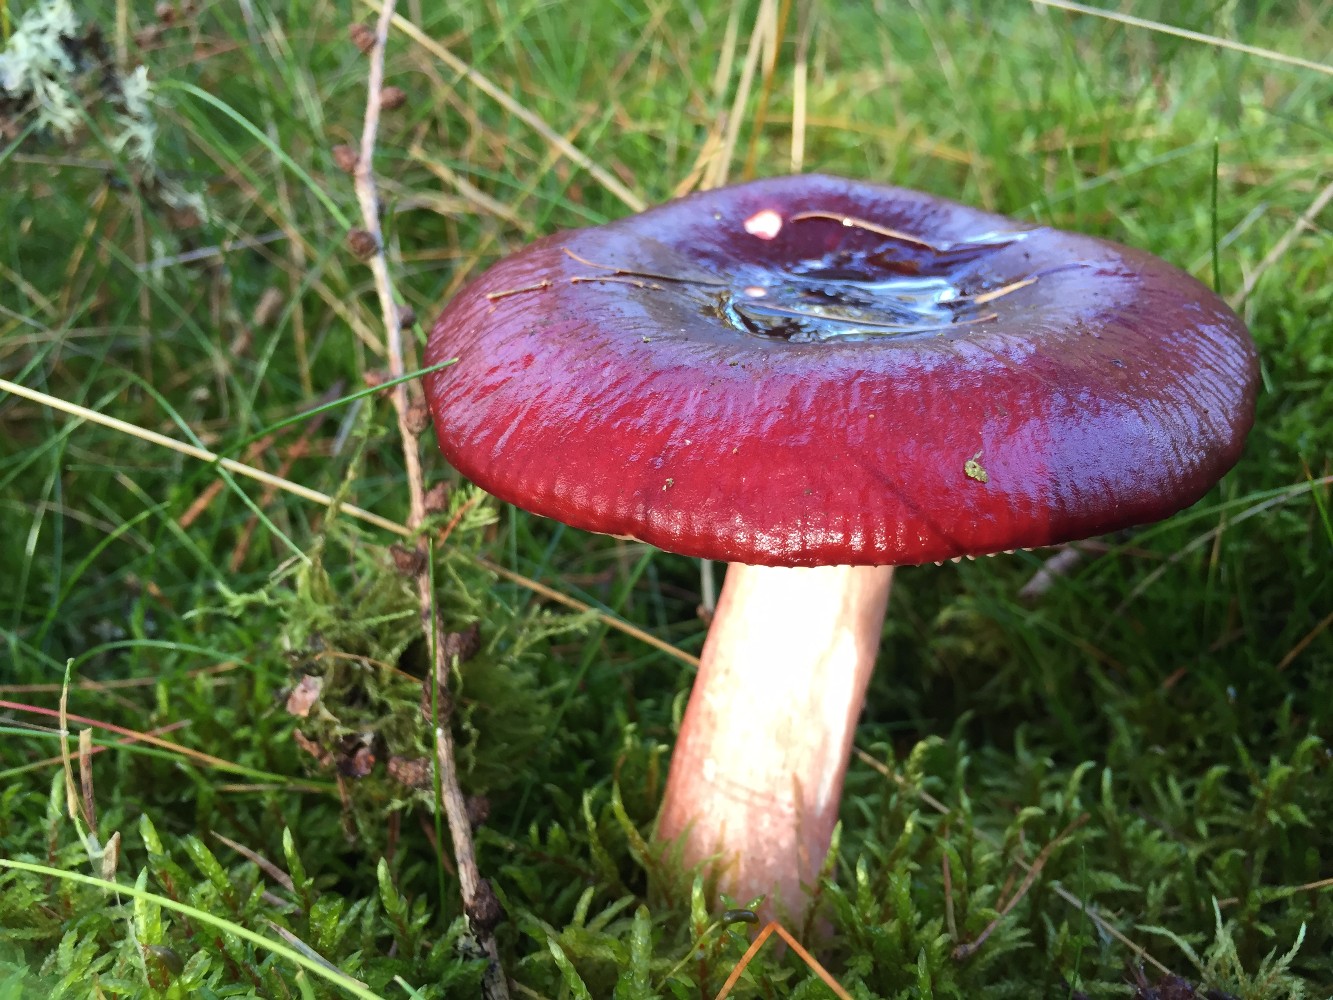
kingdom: Fungi
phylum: Basidiomycota
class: Agaricomycetes
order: Russulales
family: Russulaceae
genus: Russula
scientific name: Russula xerampelina
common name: hummer-skørhat
